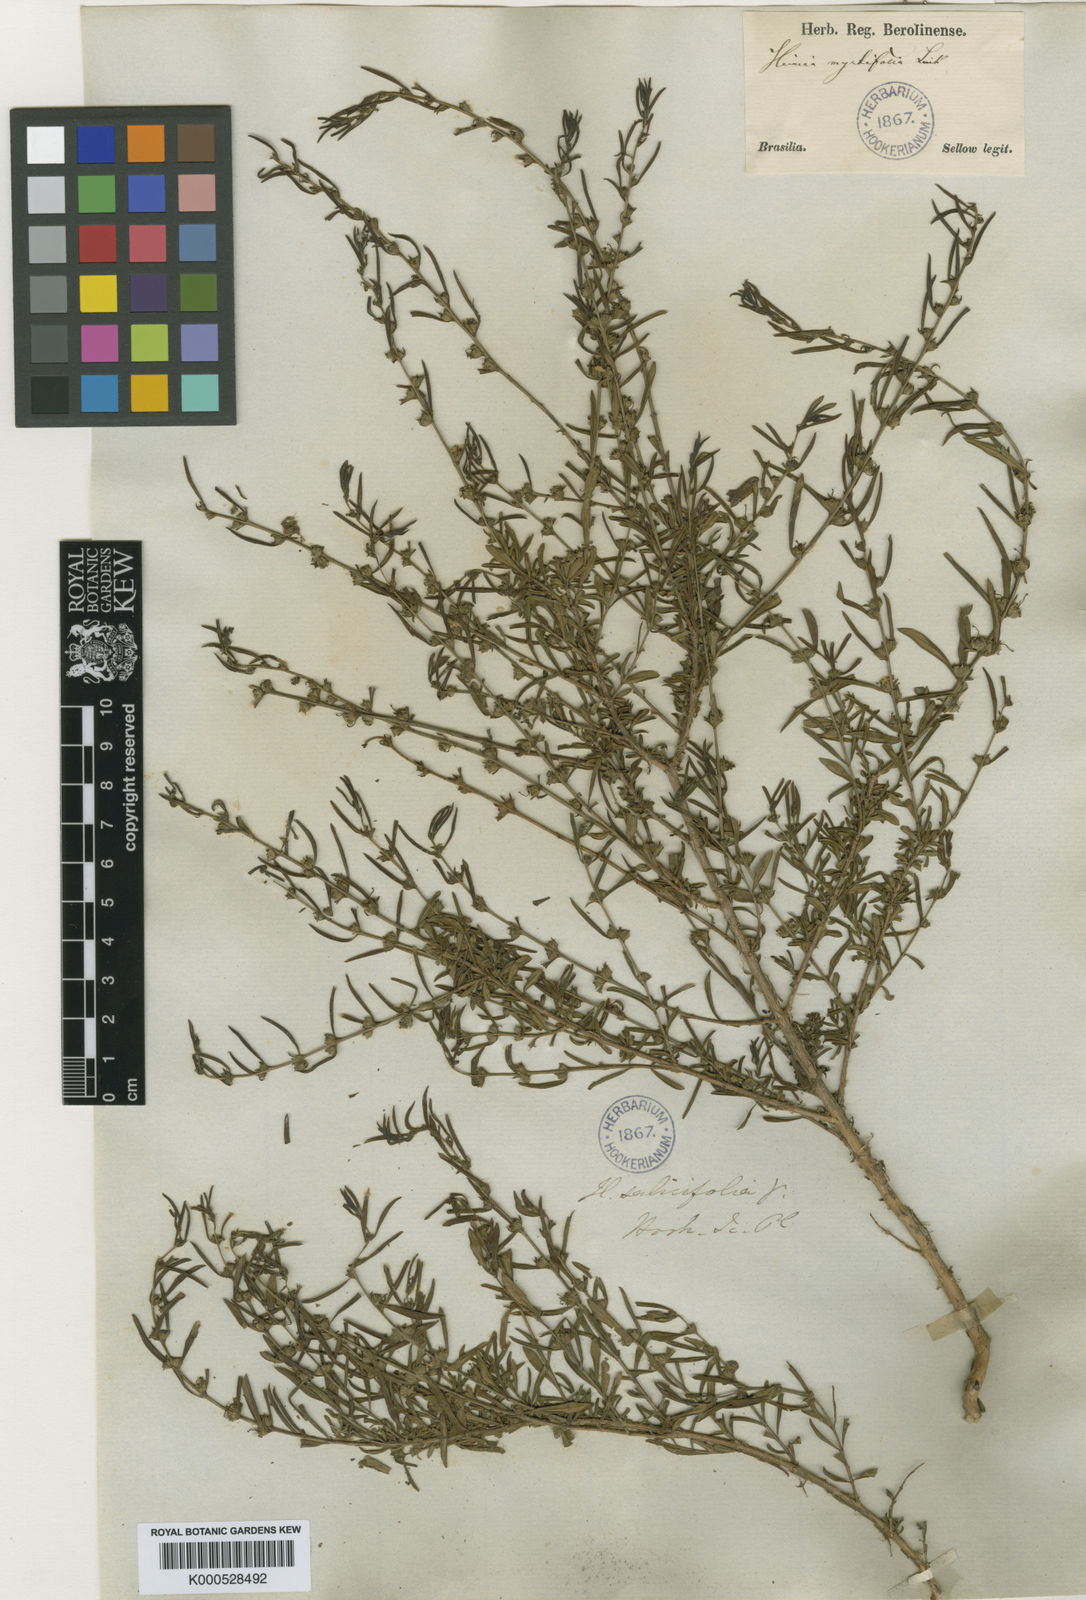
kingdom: Plantae
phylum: Tracheophyta
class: Magnoliopsida
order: Myrtales
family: Lythraceae
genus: Heimia
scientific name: Heimia apetala
